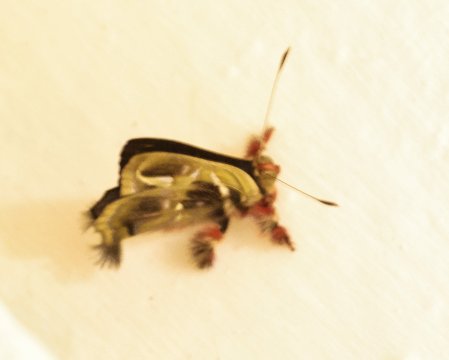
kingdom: Animalia
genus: Anteros
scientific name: Anteros renaldus
